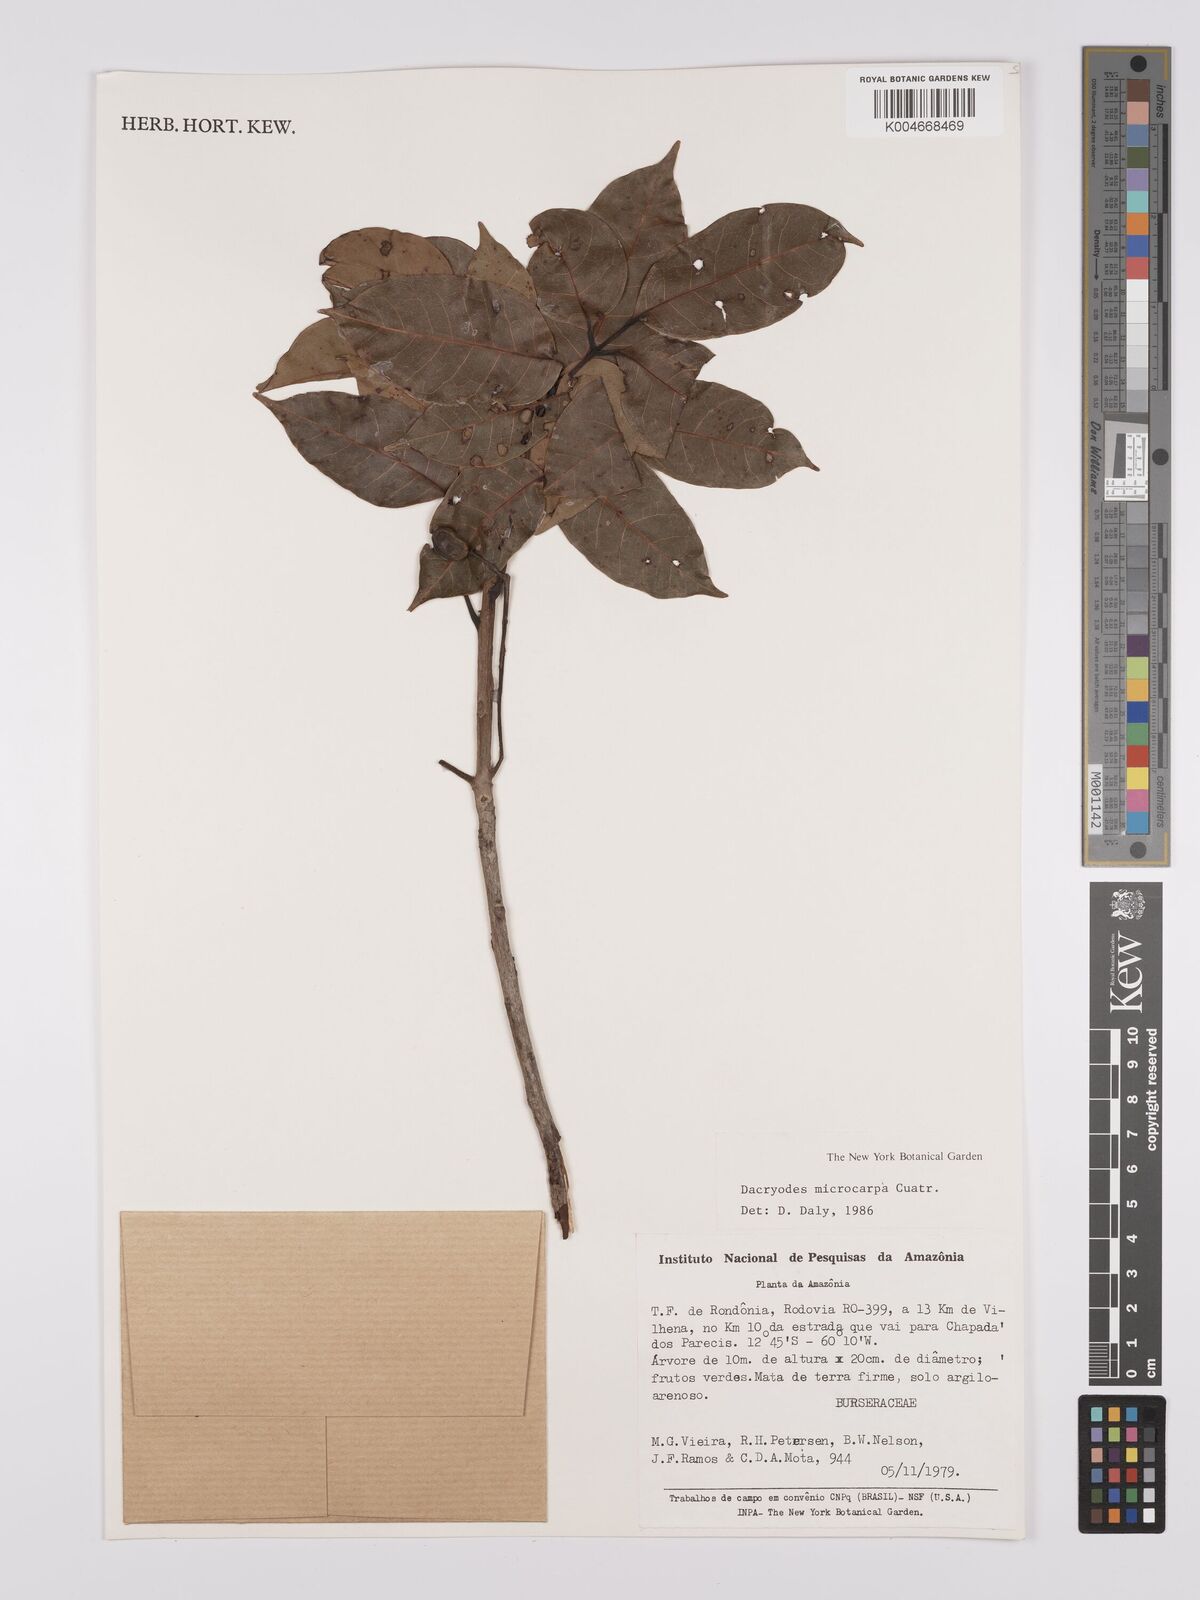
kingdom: Plantae
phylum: Tracheophyta
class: Magnoliopsida
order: Sapindales
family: Burseraceae
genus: Dacryodes
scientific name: Dacryodes microcarpa
